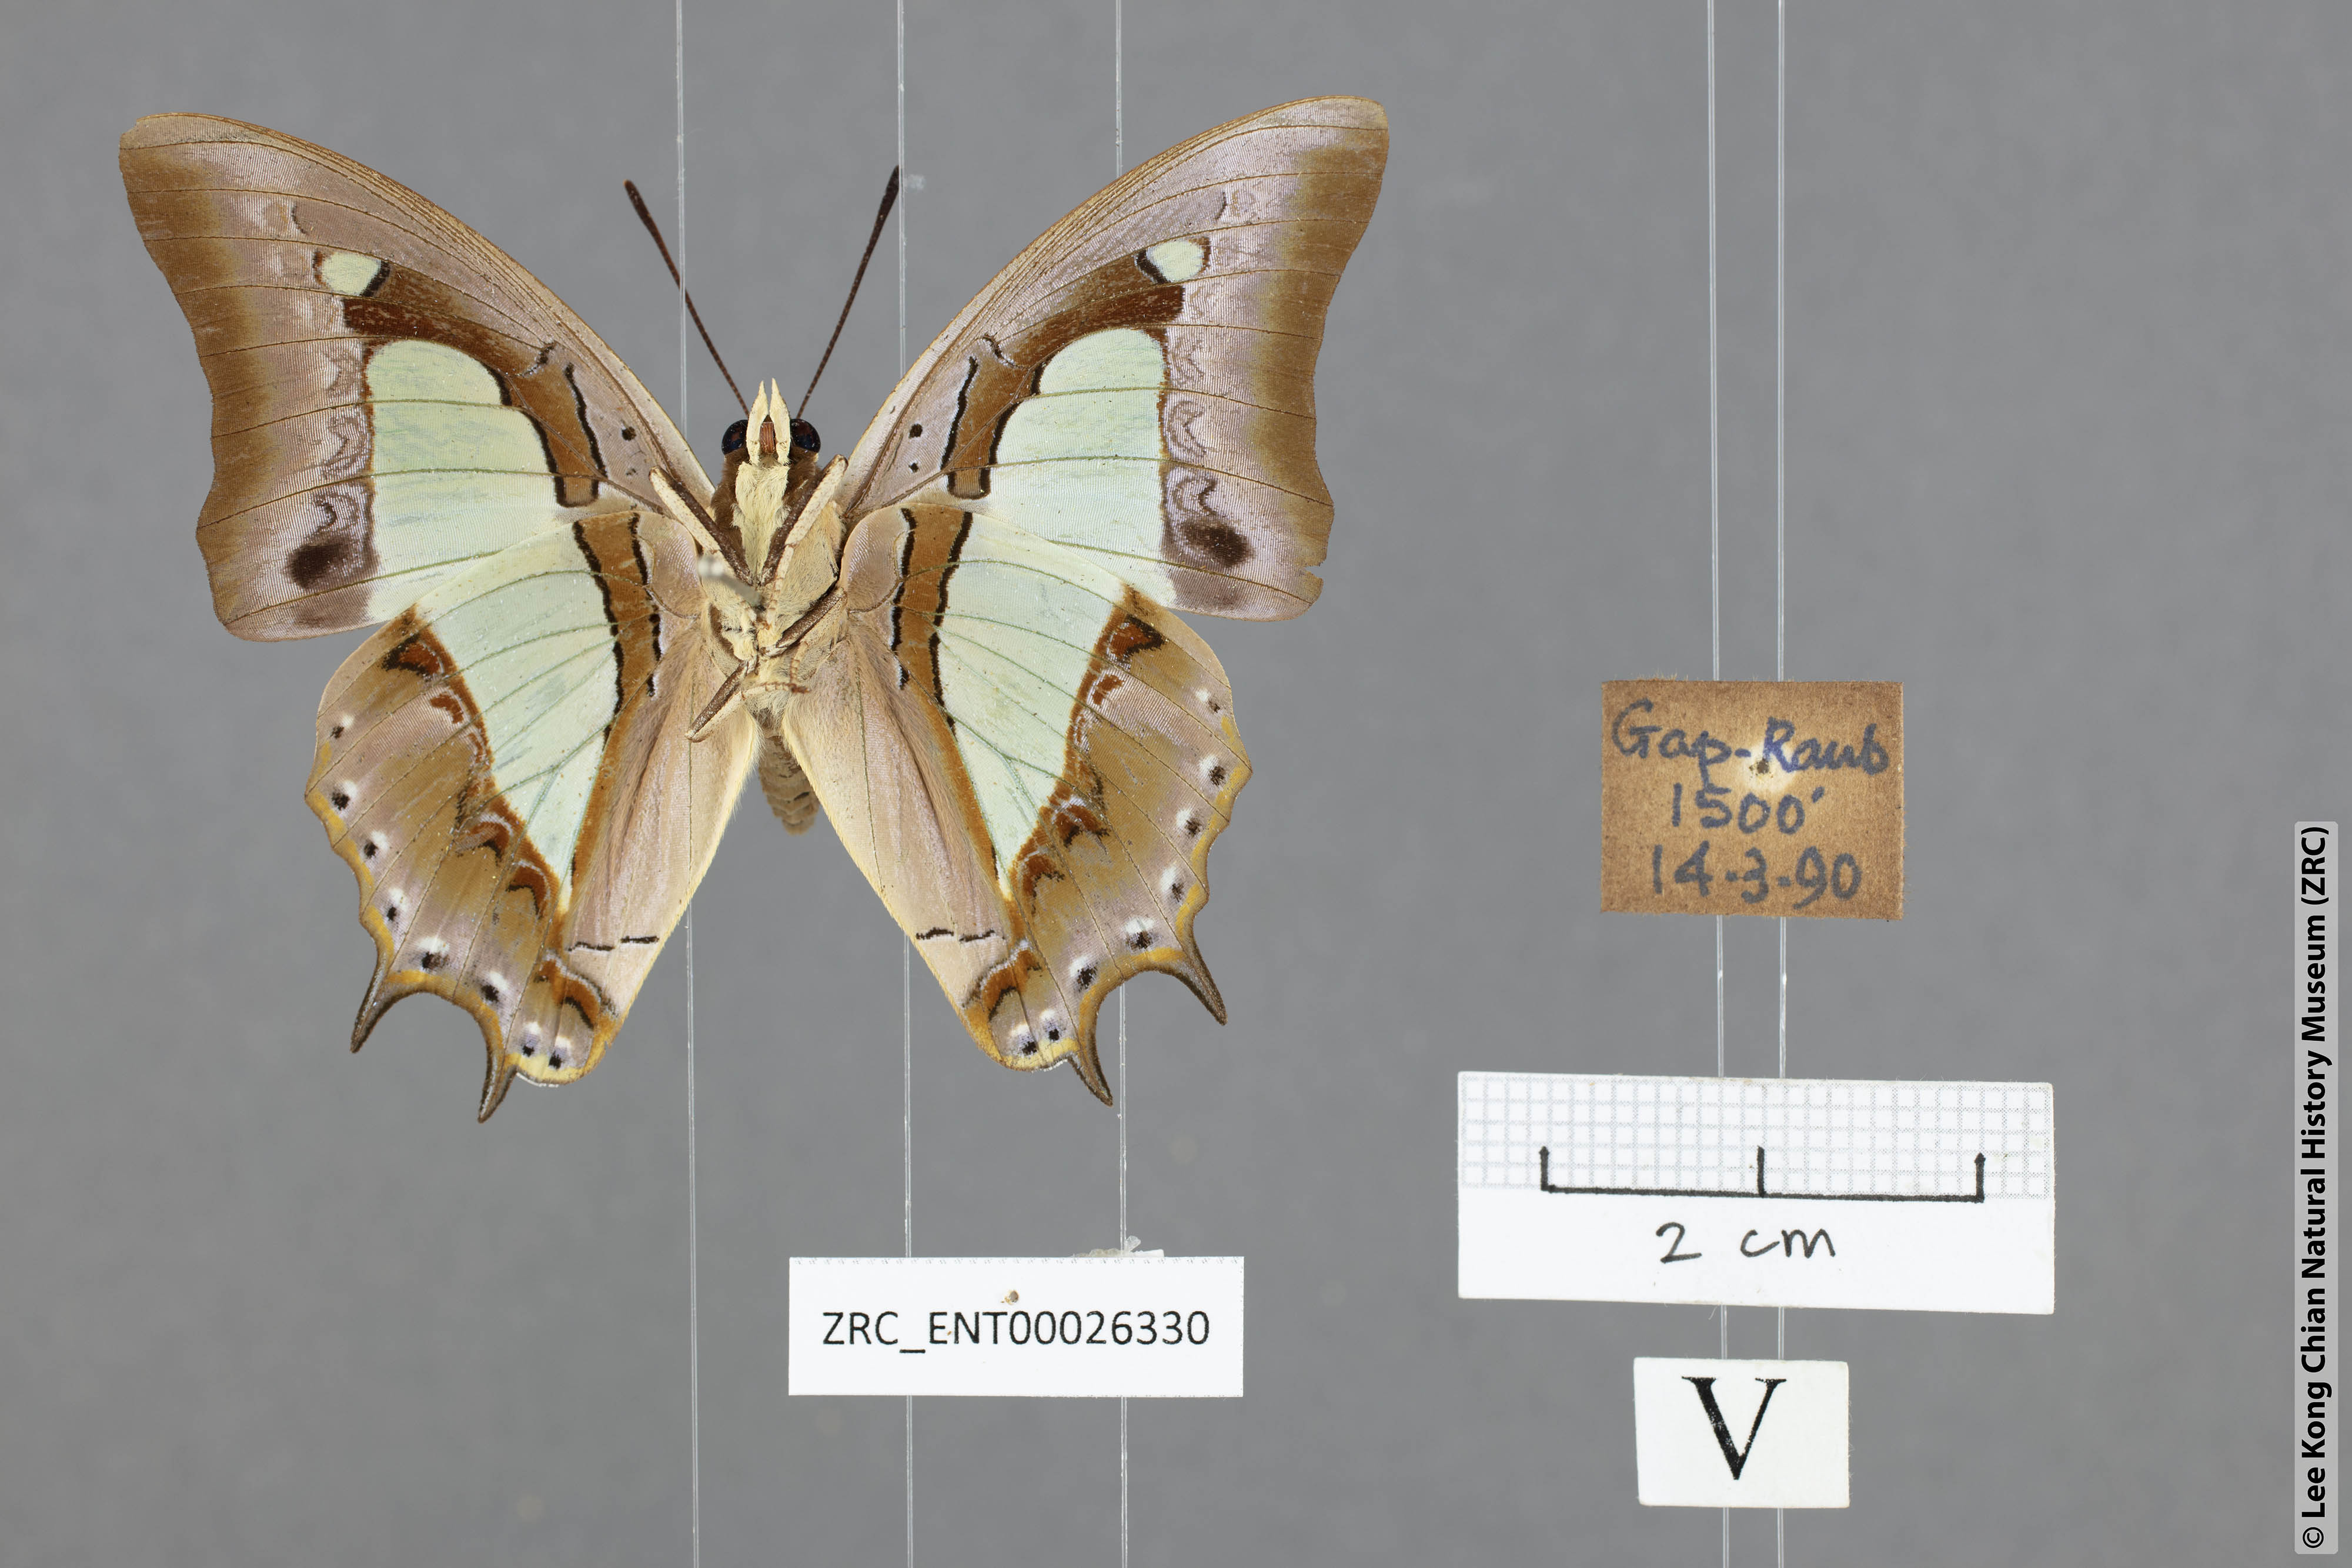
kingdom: Animalia
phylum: Arthropoda
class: Insecta
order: Lepidoptera
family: Nymphalidae
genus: Polyura
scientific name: Polyura athamas
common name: Common nawab
